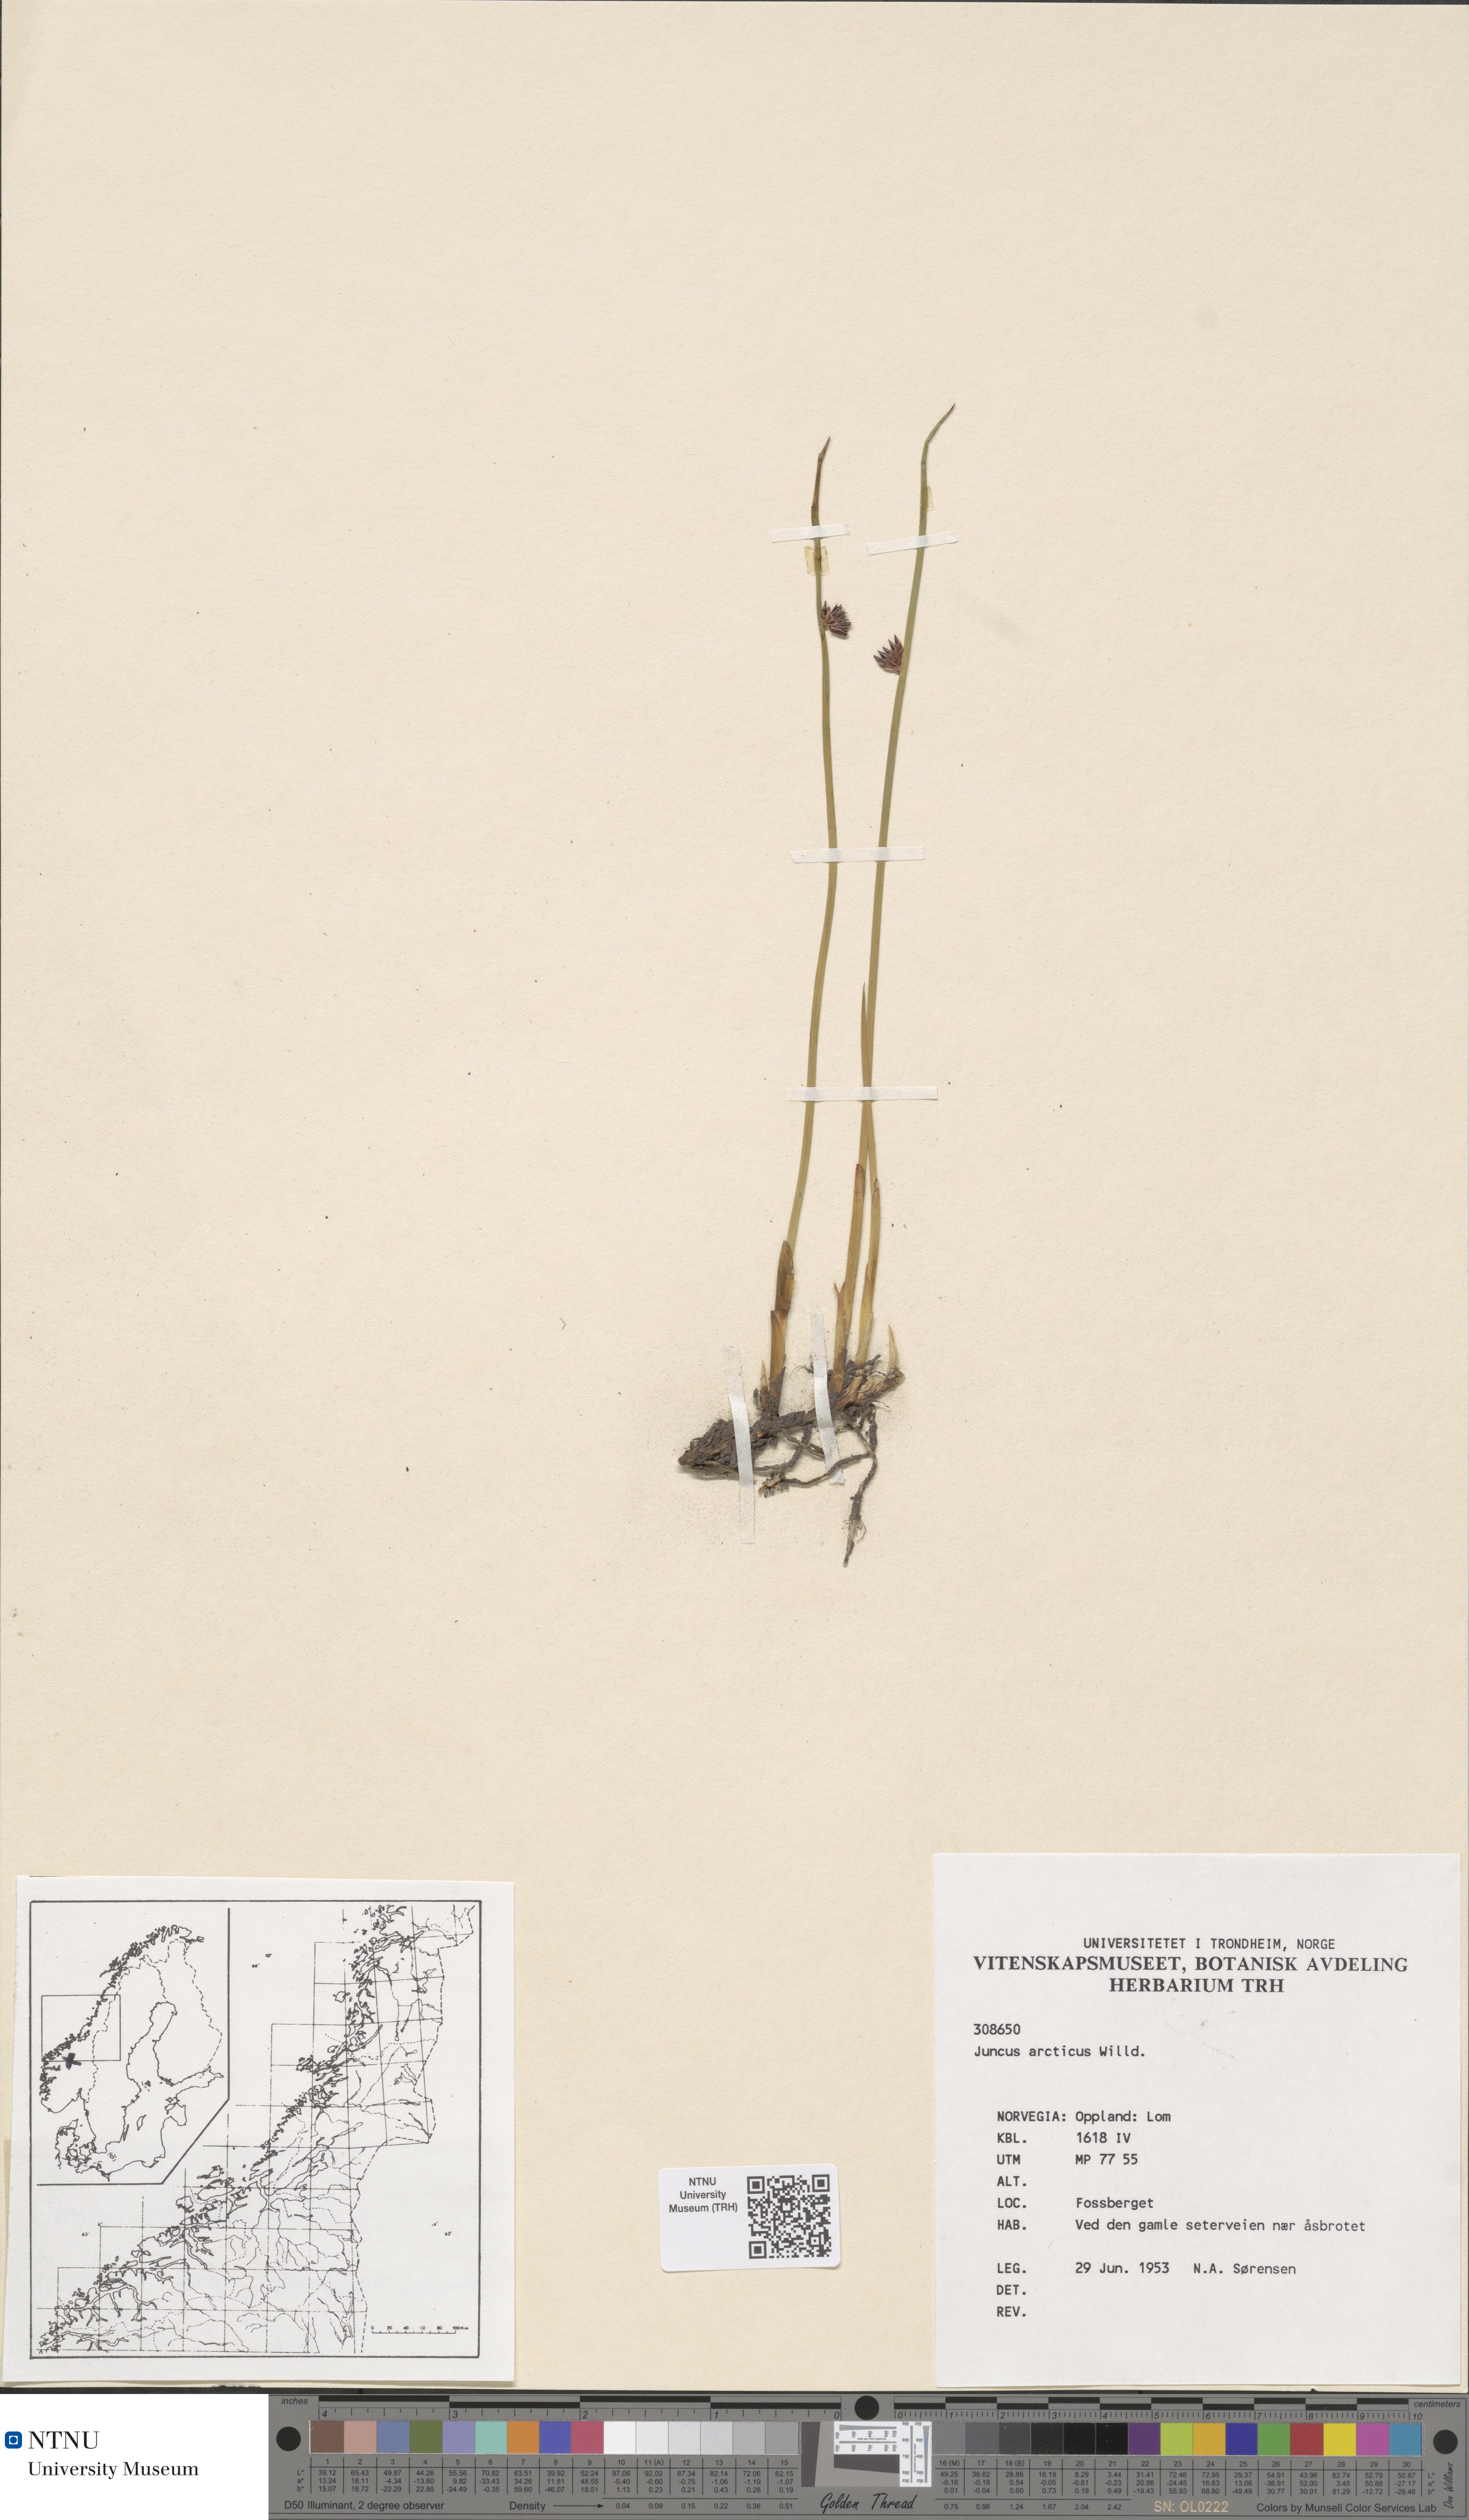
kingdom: Plantae
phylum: Tracheophyta
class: Liliopsida
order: Poales
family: Juncaceae
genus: Juncus
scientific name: Juncus arcticus
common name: Arctic rush
